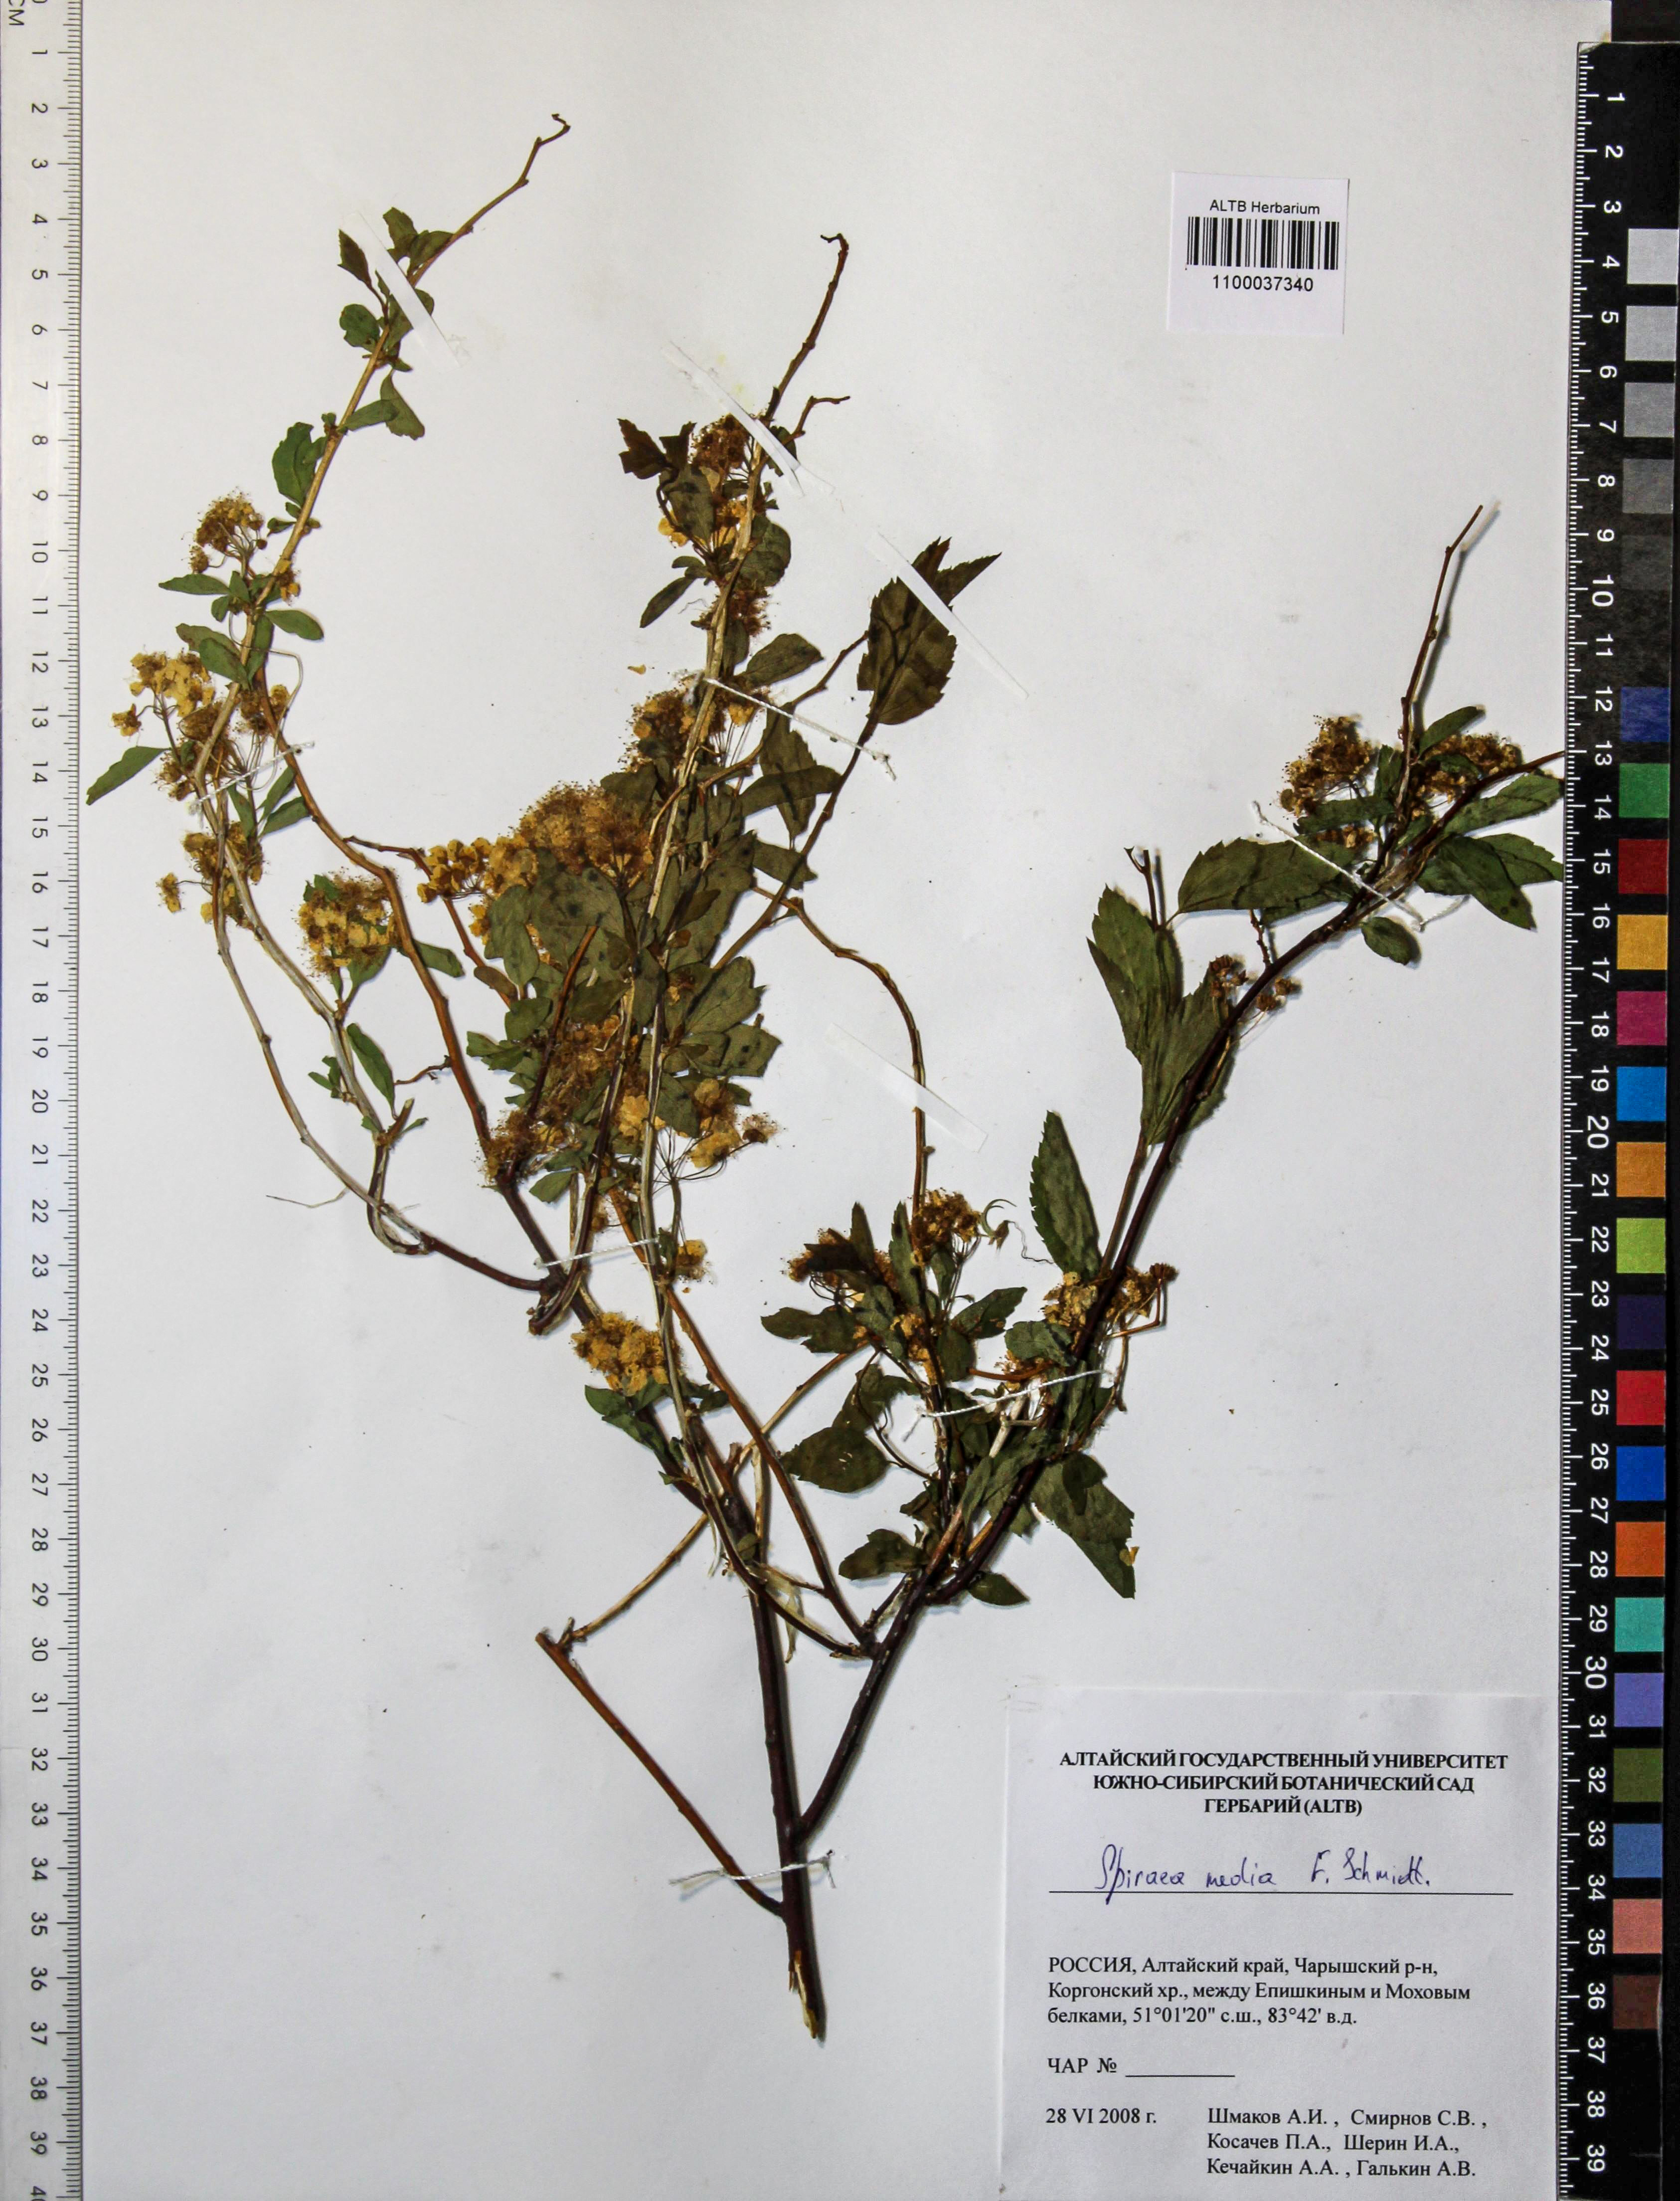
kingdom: Plantae
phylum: Tracheophyta
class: Magnoliopsida
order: Rosales
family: Rosaceae
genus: Spiraea
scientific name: Spiraea media
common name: Russian spiraea
